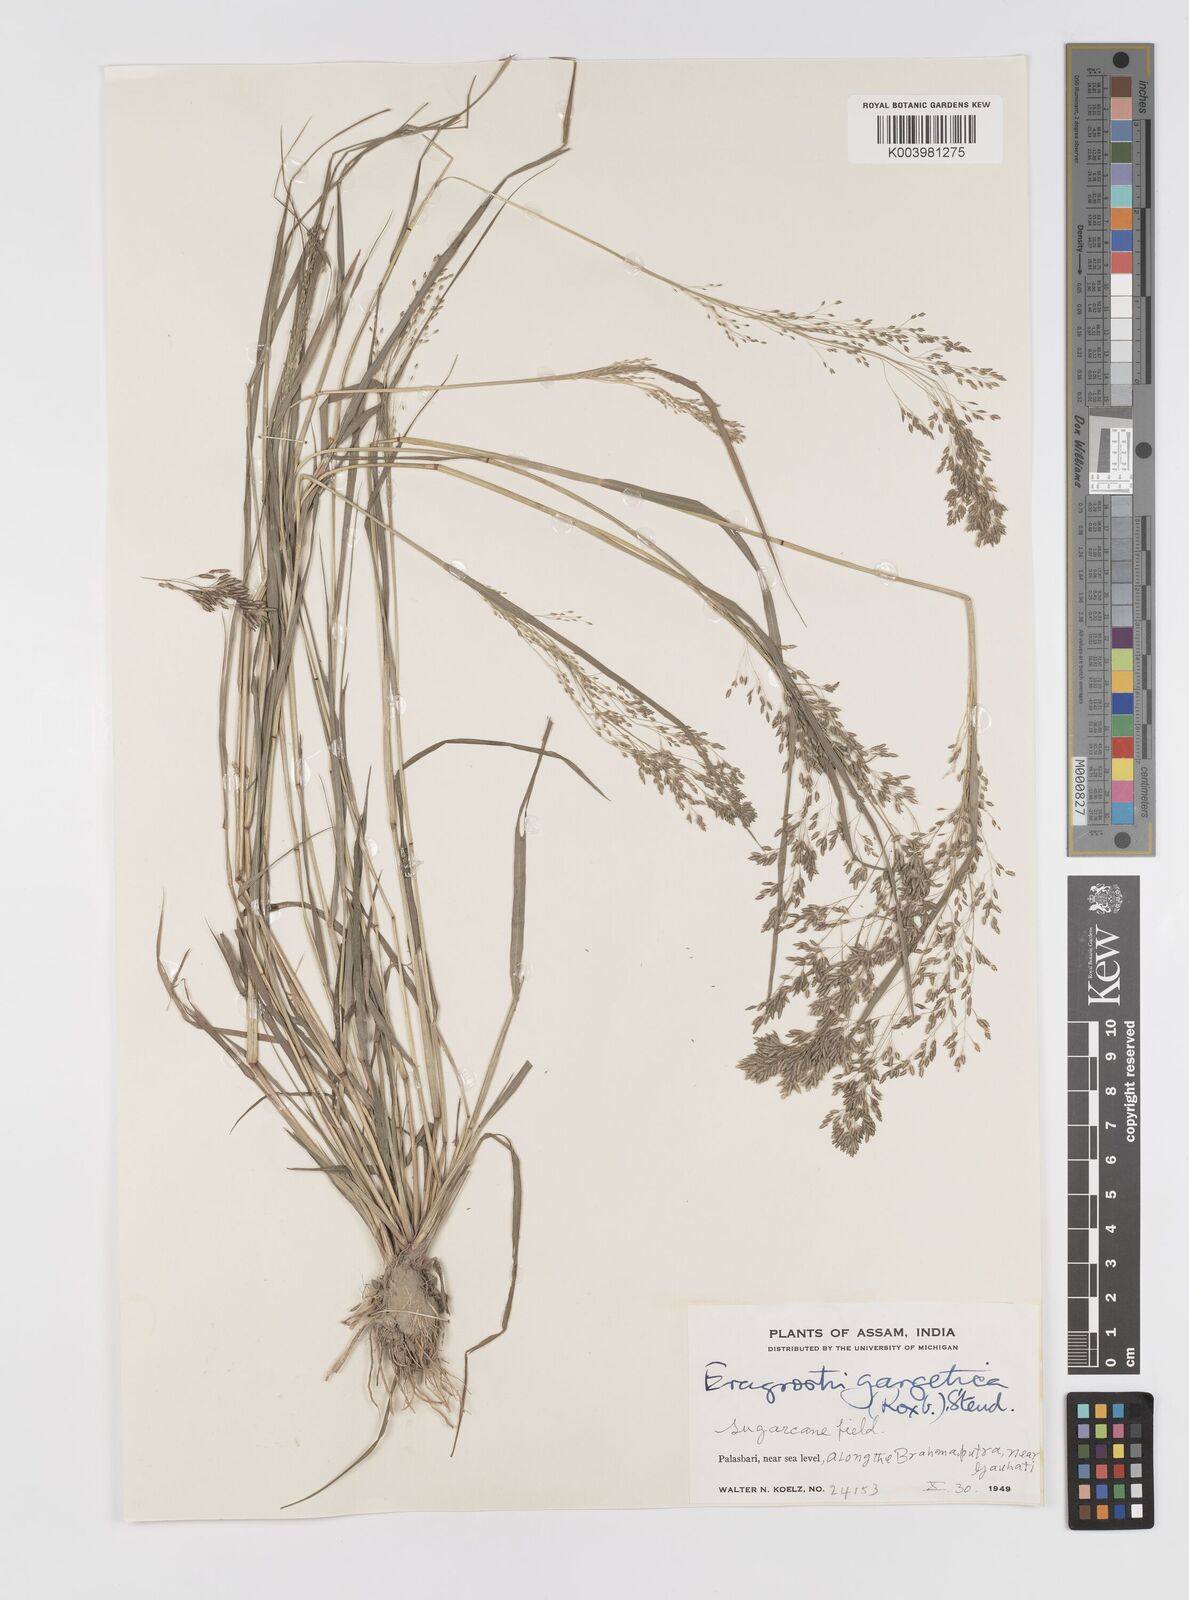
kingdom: Plantae
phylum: Tracheophyta
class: Liliopsida
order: Poales
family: Poaceae
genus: Eragrostis
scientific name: Eragrostis gangetica
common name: Slimflower lovegrass
